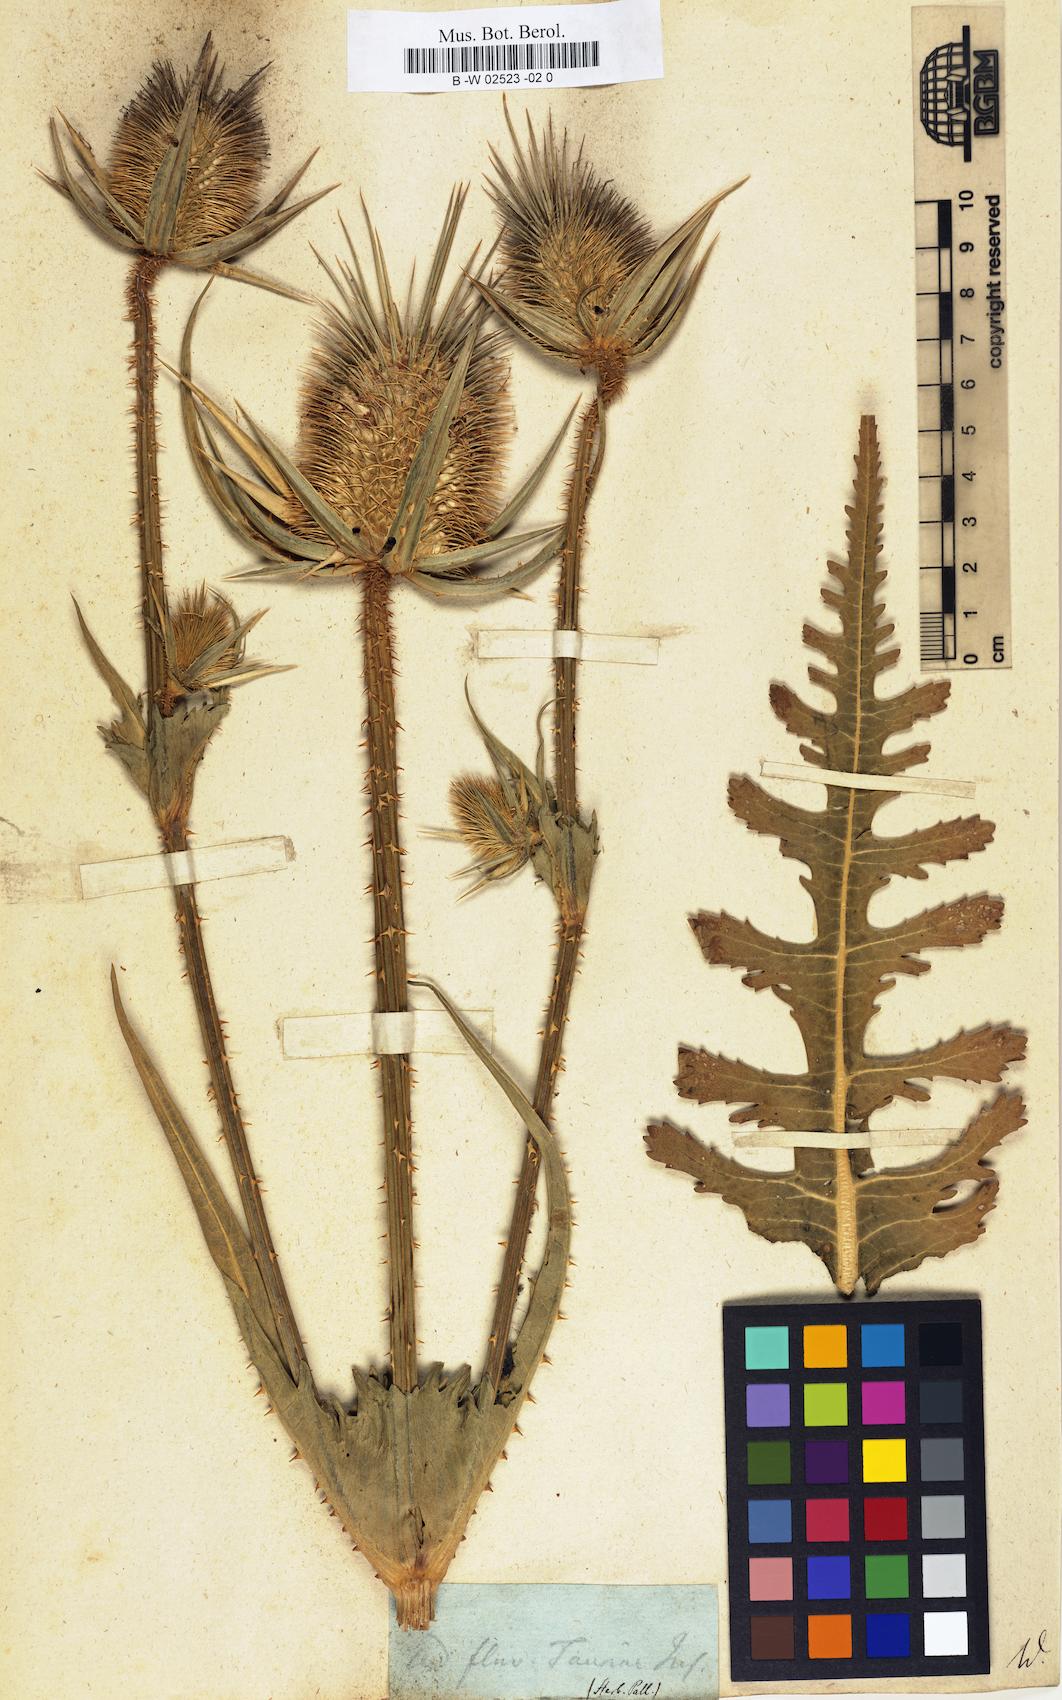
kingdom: Plantae
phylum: Tracheophyta
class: Magnoliopsida
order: Dipsacales
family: Caprifoliaceae
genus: Dipsacus
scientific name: Dipsacus laciniatus
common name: Cut-leaved teasel
